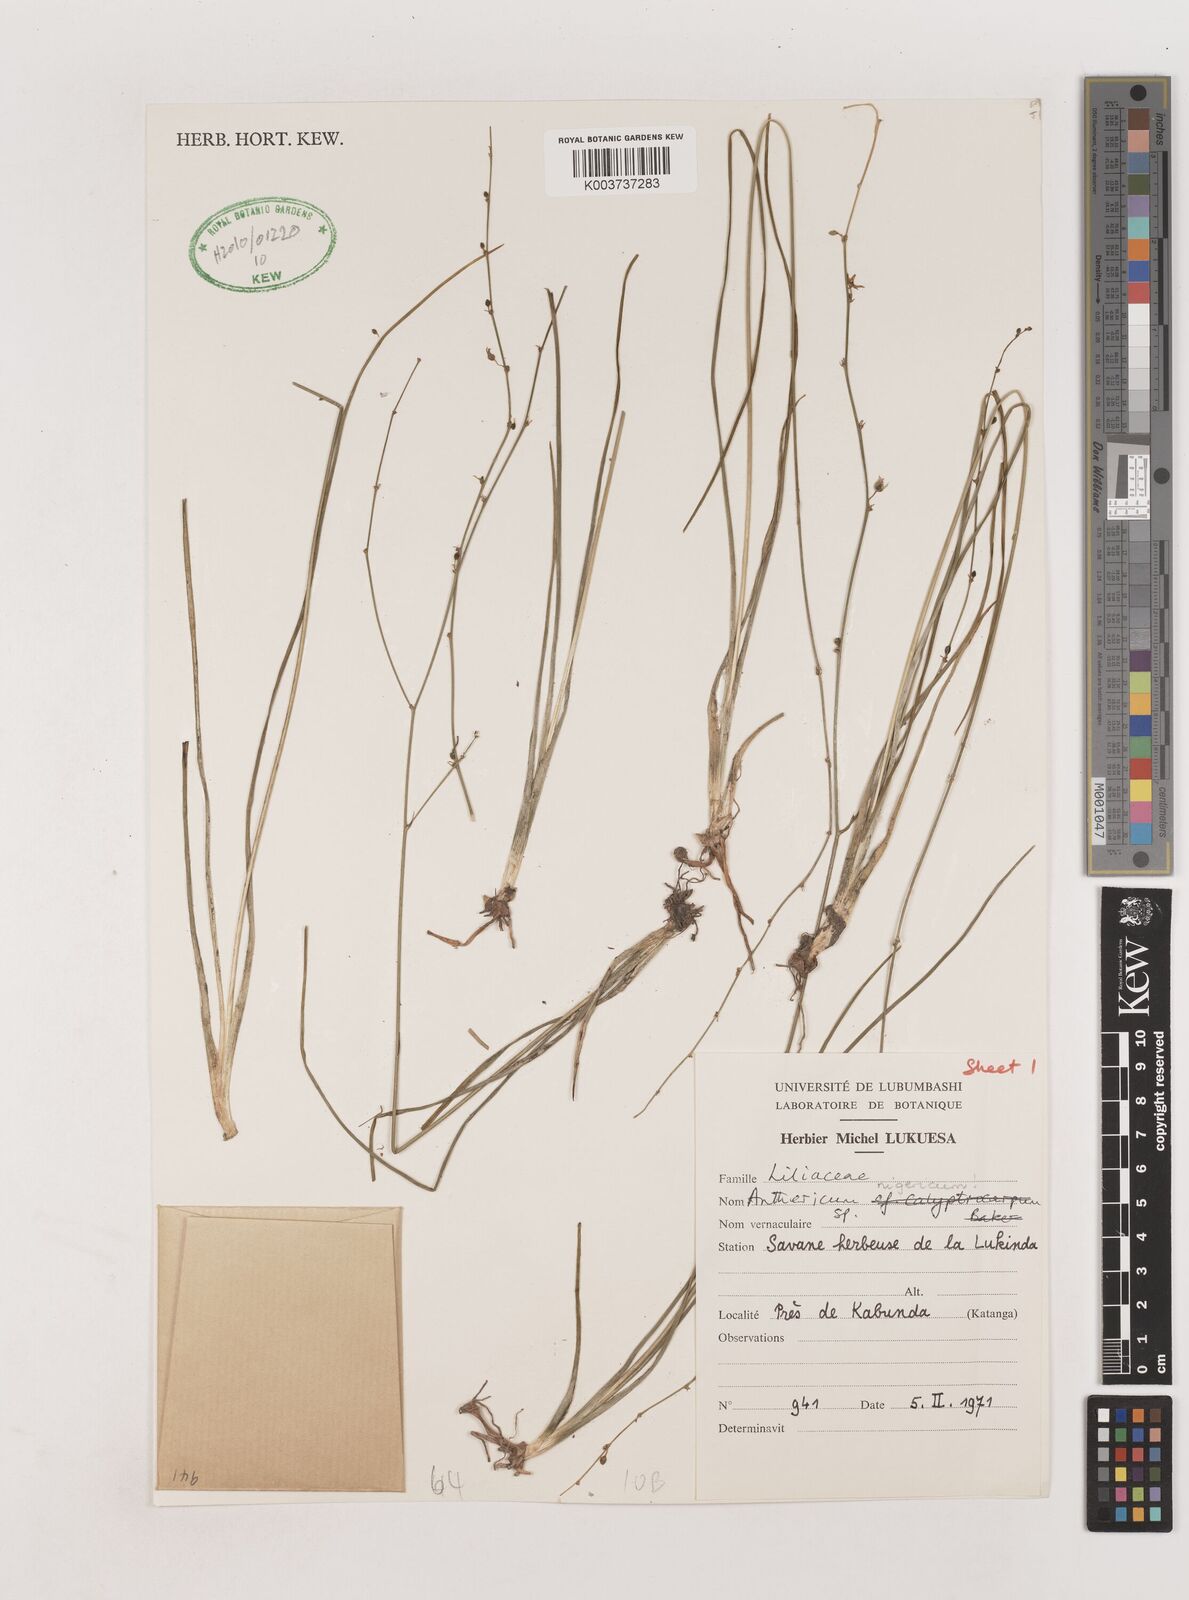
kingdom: Plantae
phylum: Tracheophyta
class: Liliopsida
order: Asparagales
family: Asparagaceae
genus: Chlorophytum
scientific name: Chlorophytum angustissimum
